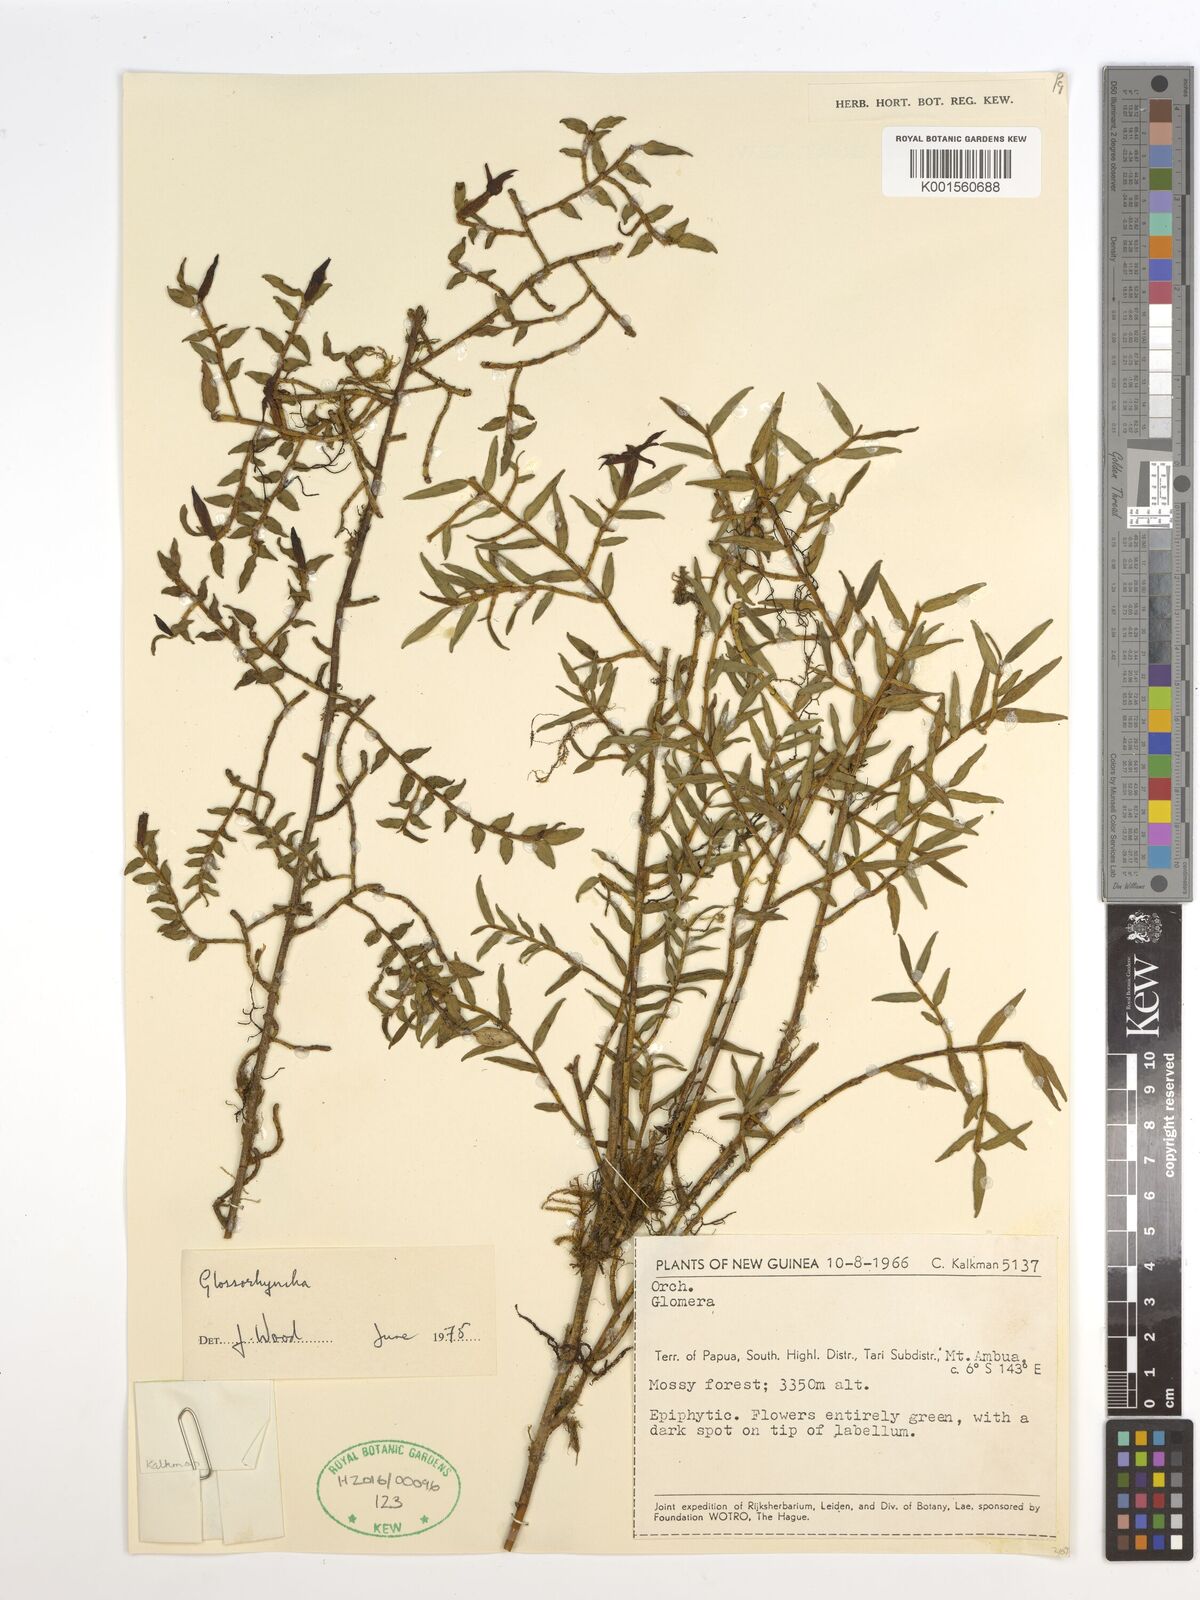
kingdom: Plantae
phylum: Tracheophyta
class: Liliopsida
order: Asparagales
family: Orchidaceae
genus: Glomera
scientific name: Glomera
